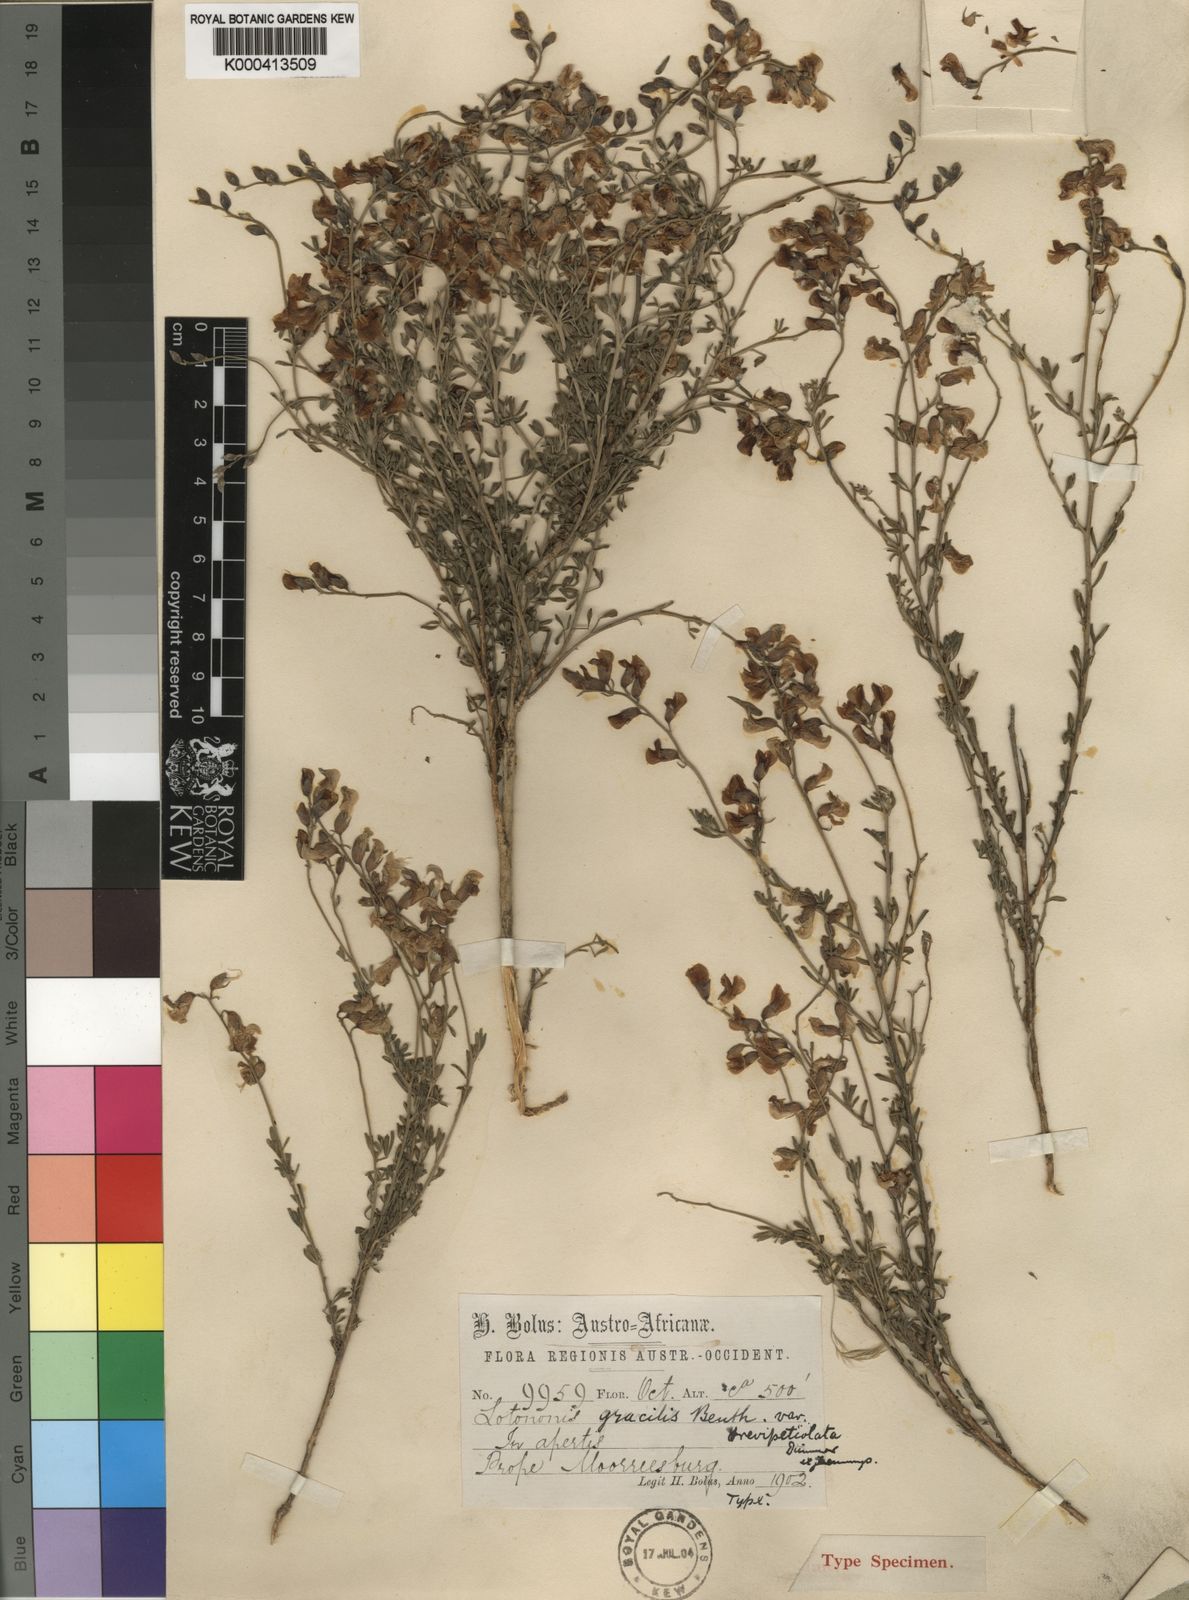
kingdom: Plantae
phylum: Tracheophyta
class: Magnoliopsida
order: Fabales
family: Fabaceae
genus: Lotononis
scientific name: Lotononis densa
